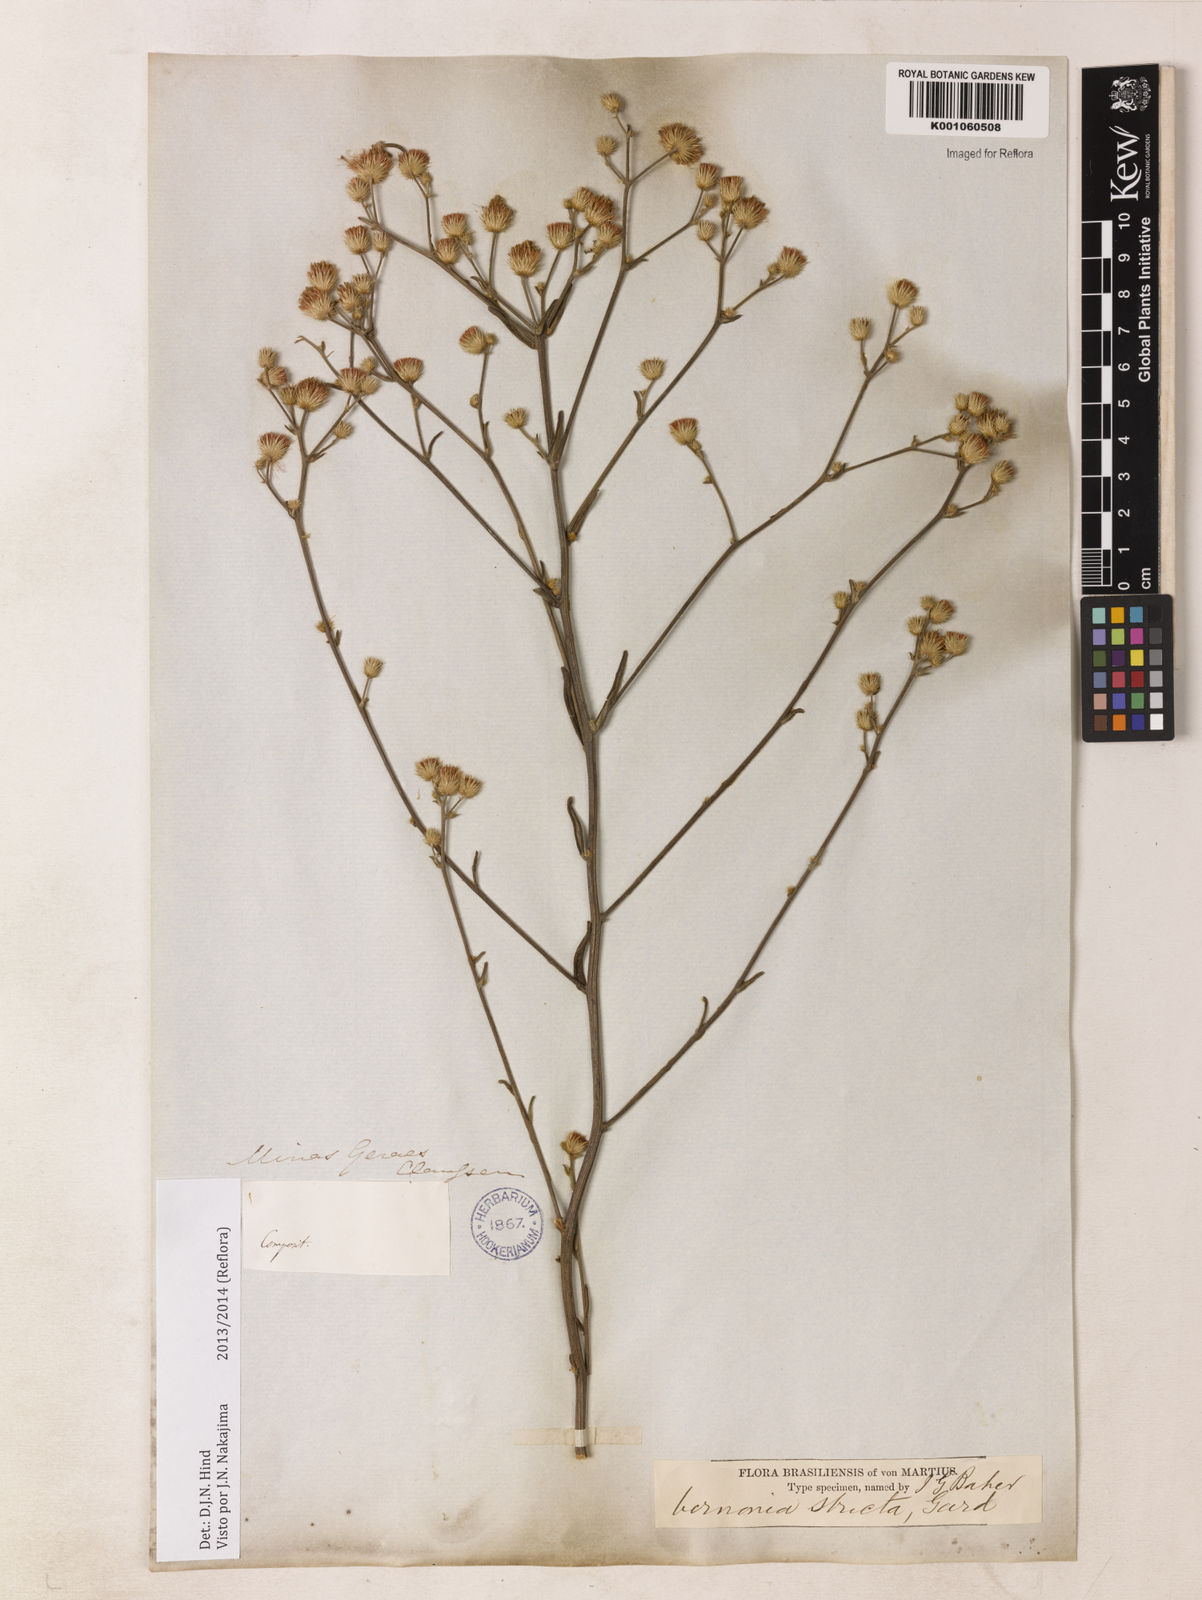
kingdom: Plantae
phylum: Tracheophyta
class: Magnoliopsida
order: Asterales
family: Asteraceae
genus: Echinocoryne
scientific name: Echinocoryne stricta
